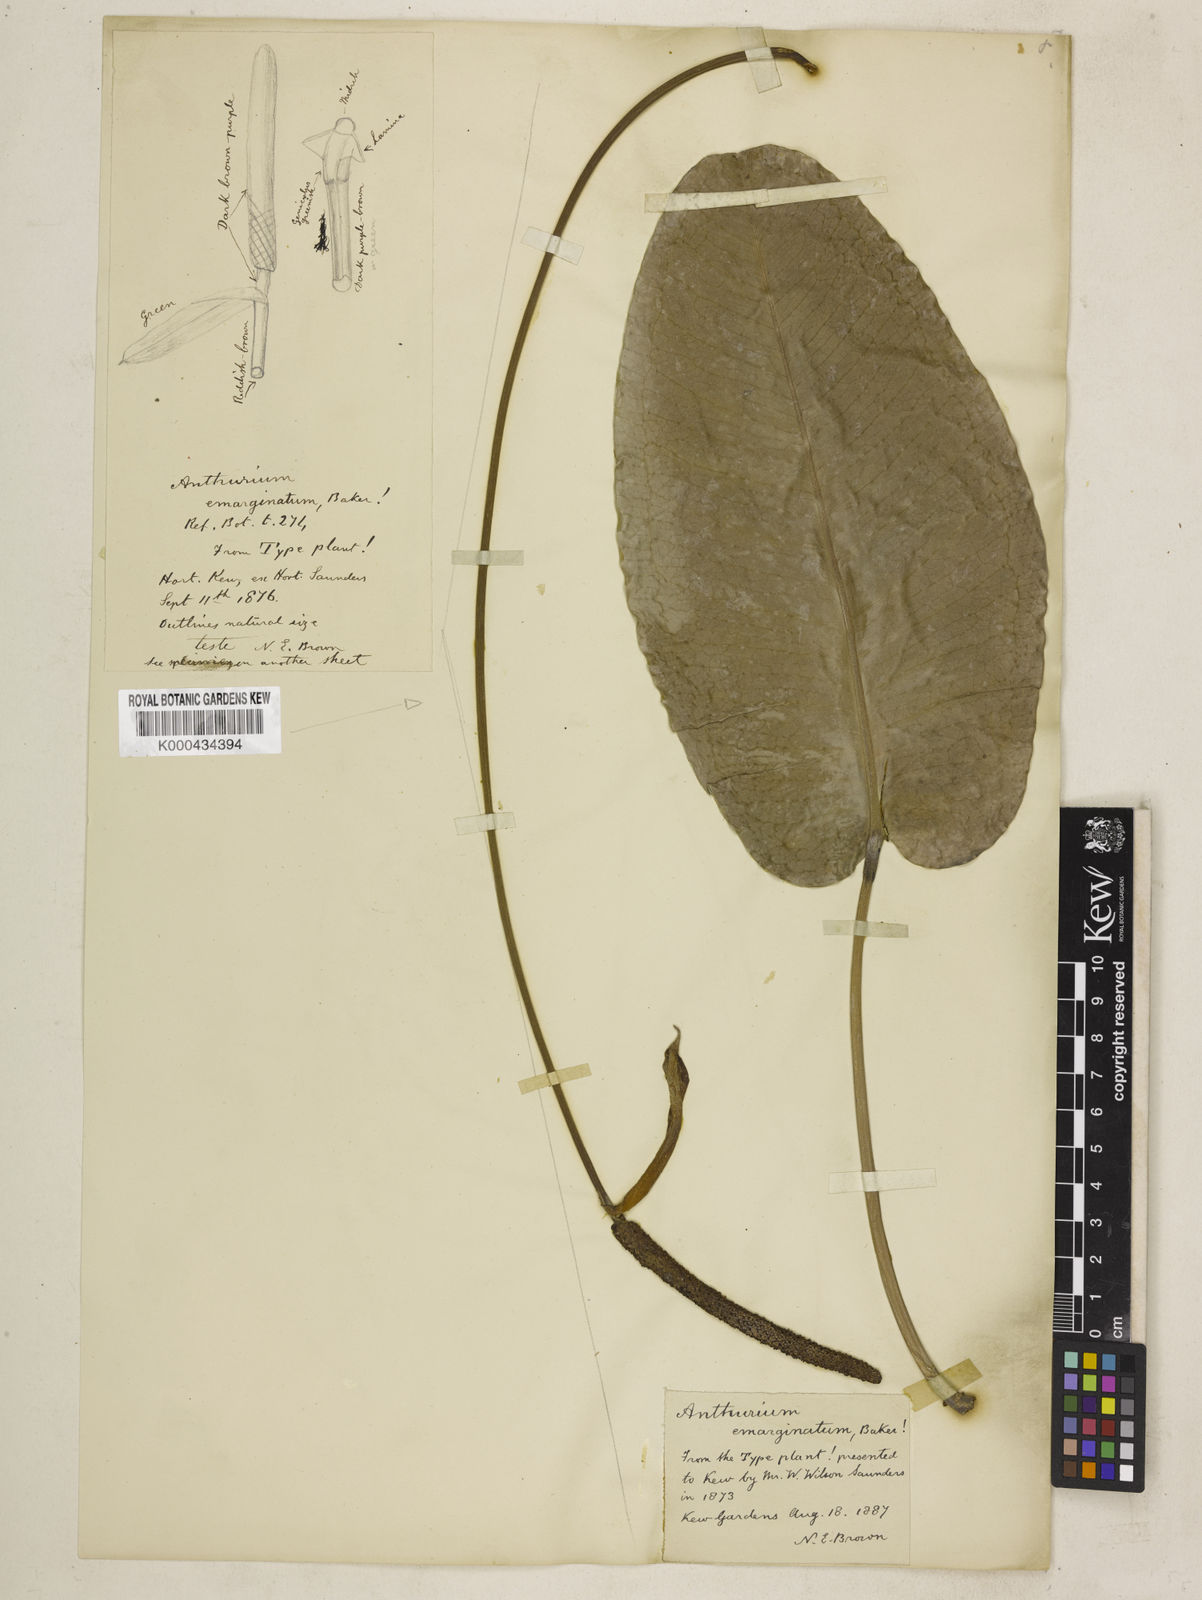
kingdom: Plantae
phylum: Tracheophyta
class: Liliopsida
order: Alismatales
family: Araceae
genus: Anthurium
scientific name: Anthurium emarginatum
